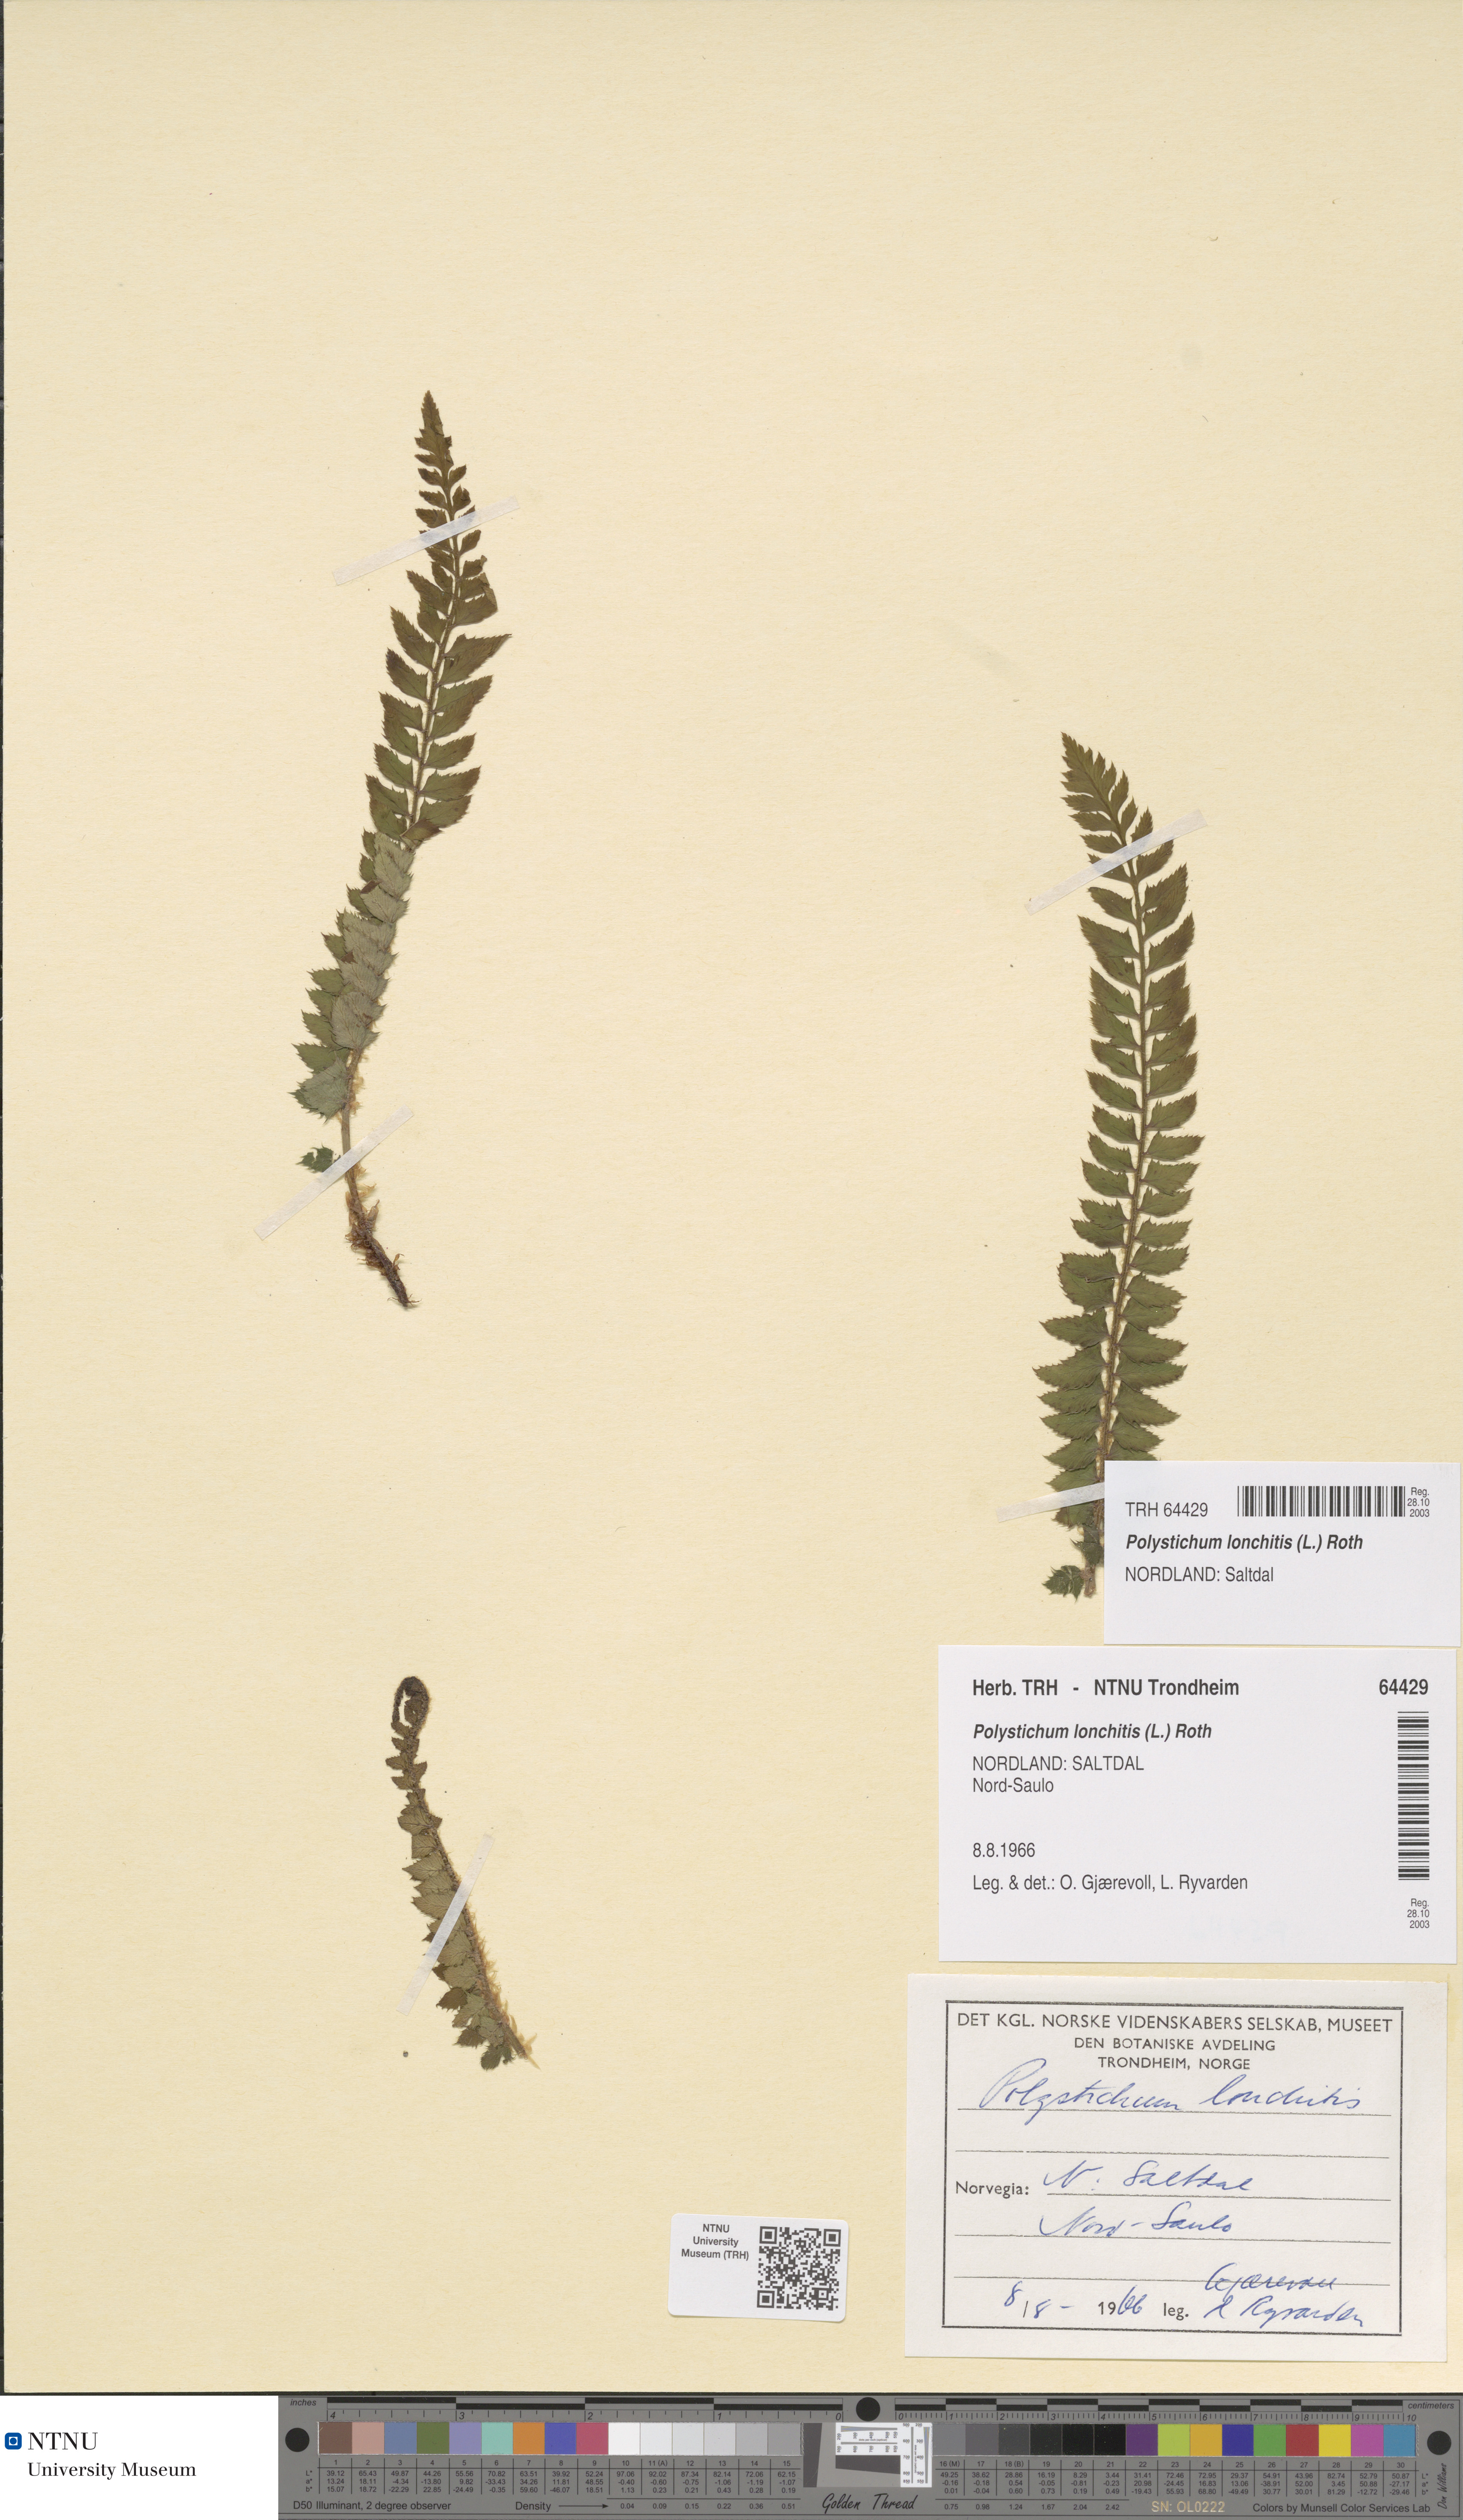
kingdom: Plantae
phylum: Tracheophyta
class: Polypodiopsida
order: Polypodiales
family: Dryopteridaceae
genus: Polystichum
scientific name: Polystichum lonchitis
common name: Holly fern
